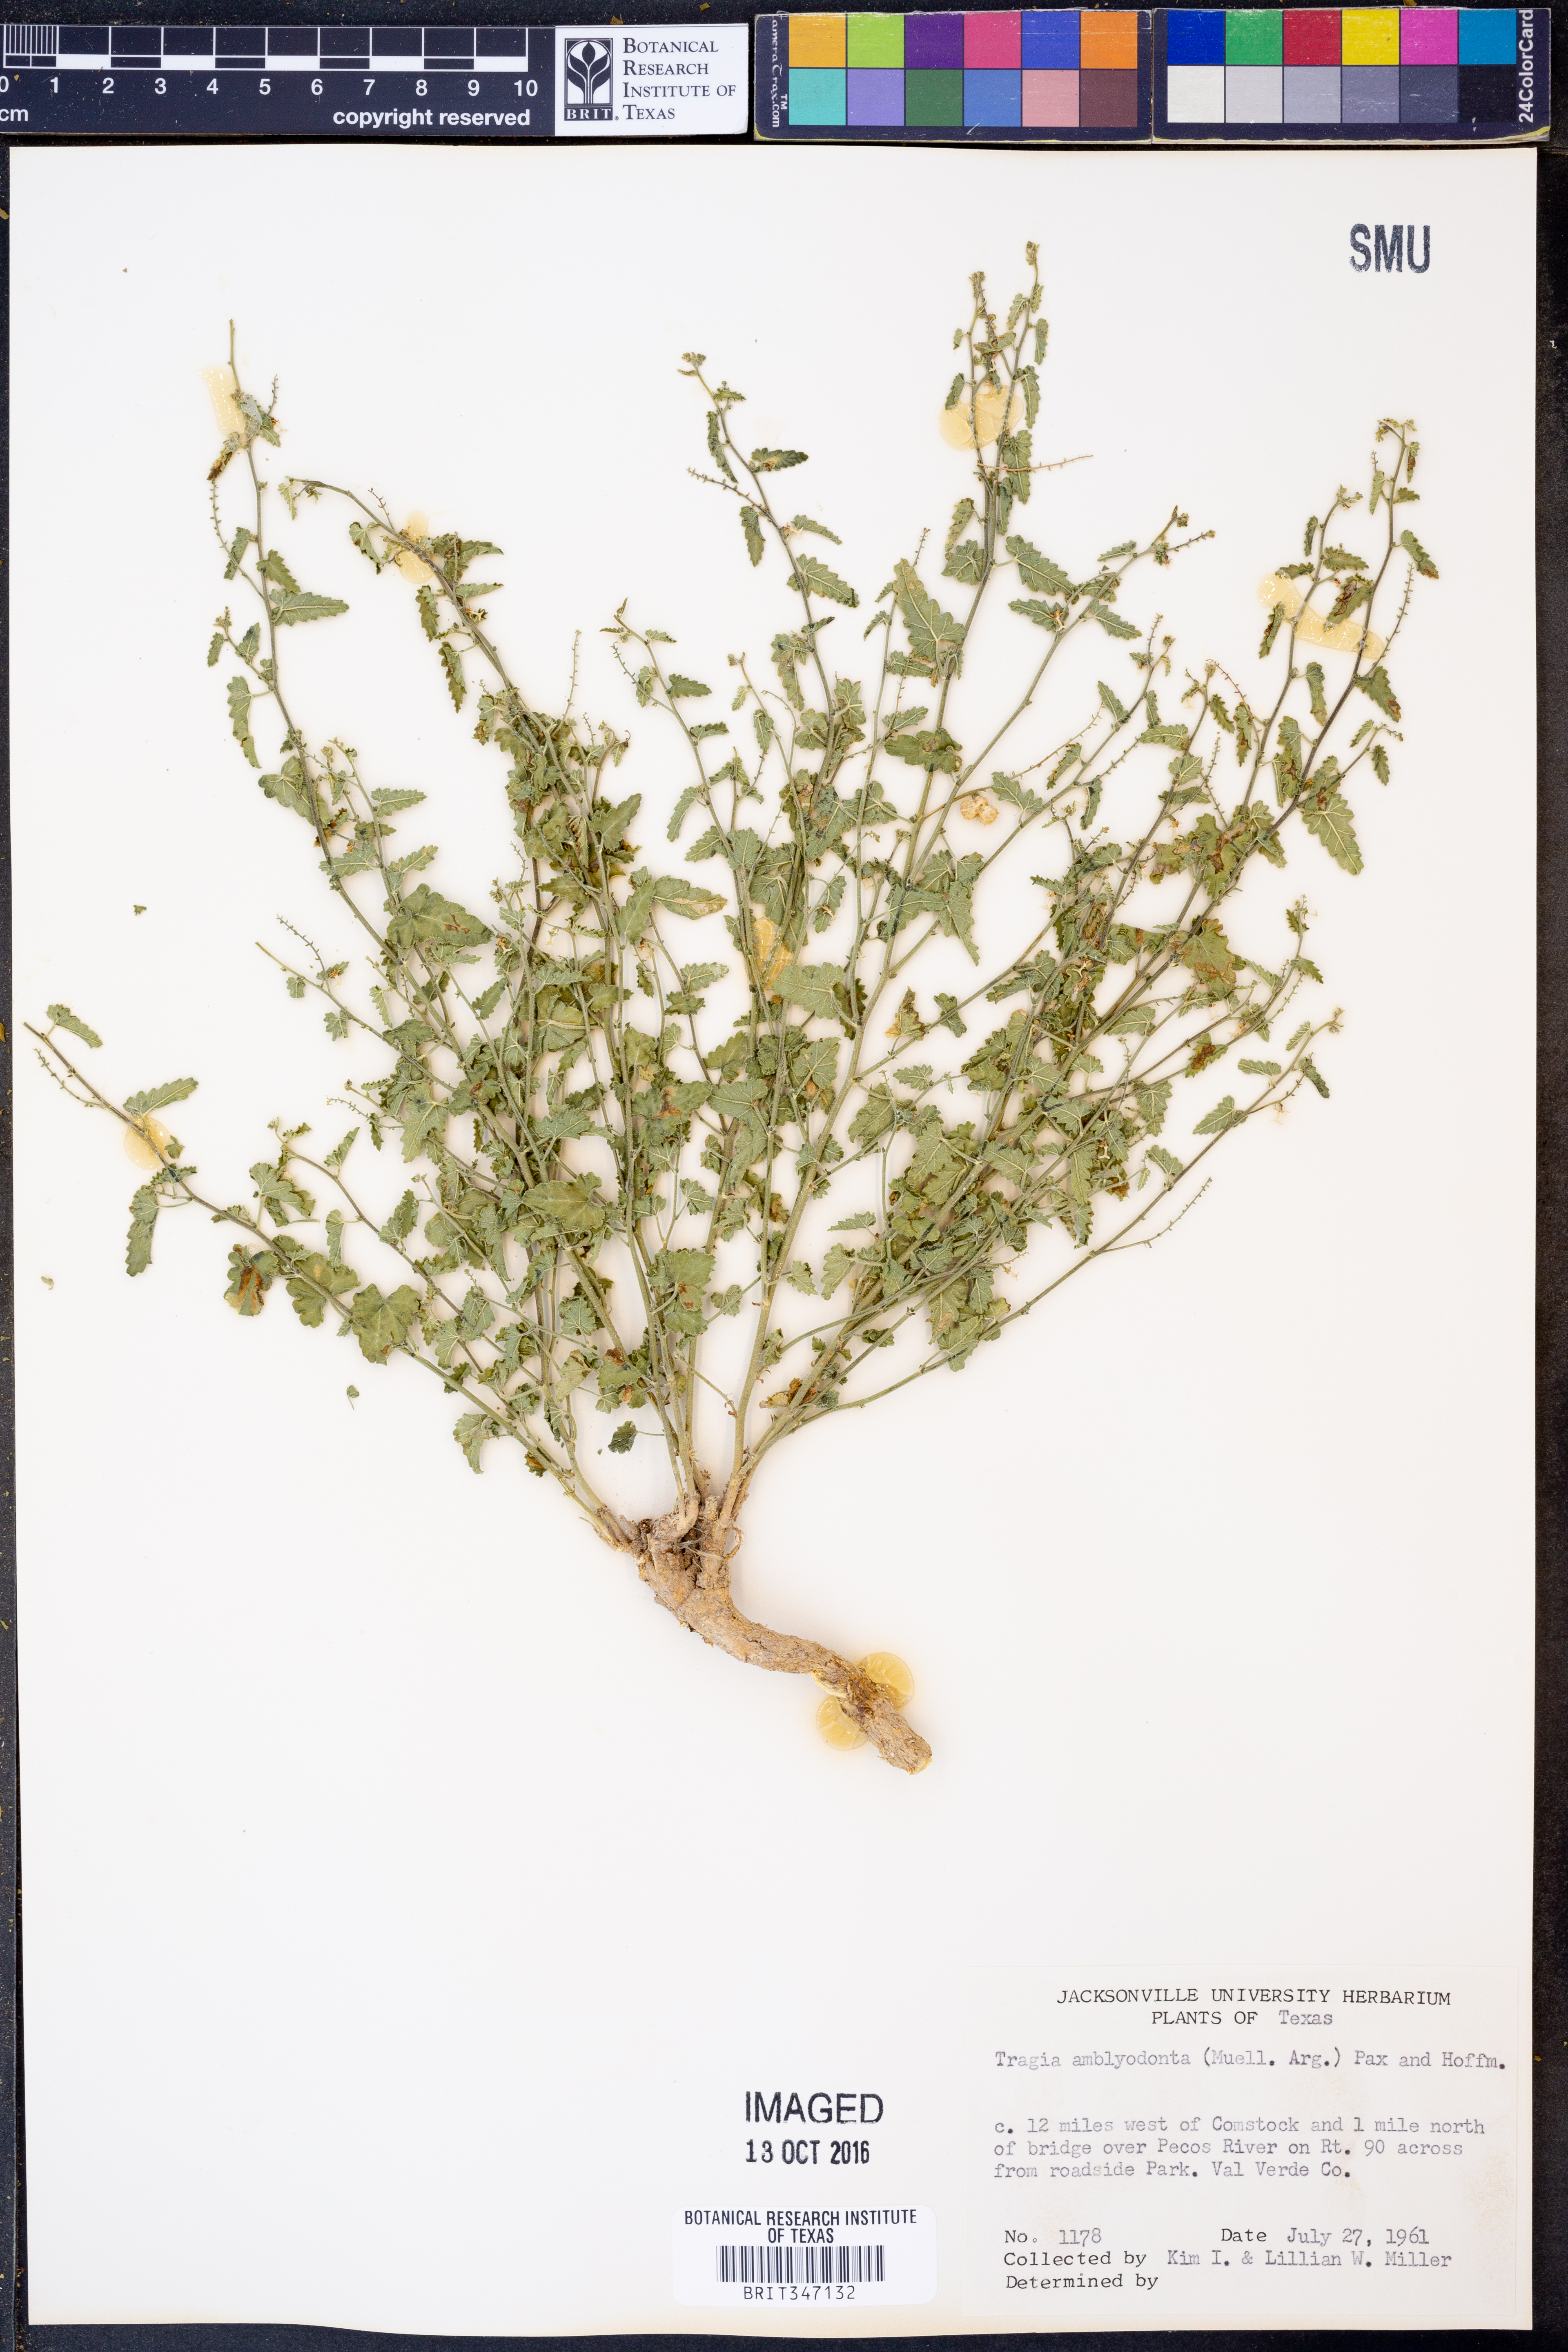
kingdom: Plantae
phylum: Tracheophyta
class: Magnoliopsida
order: Malpighiales
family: Euphorbiaceae
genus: Tragia
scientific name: Tragia amblyodonta
